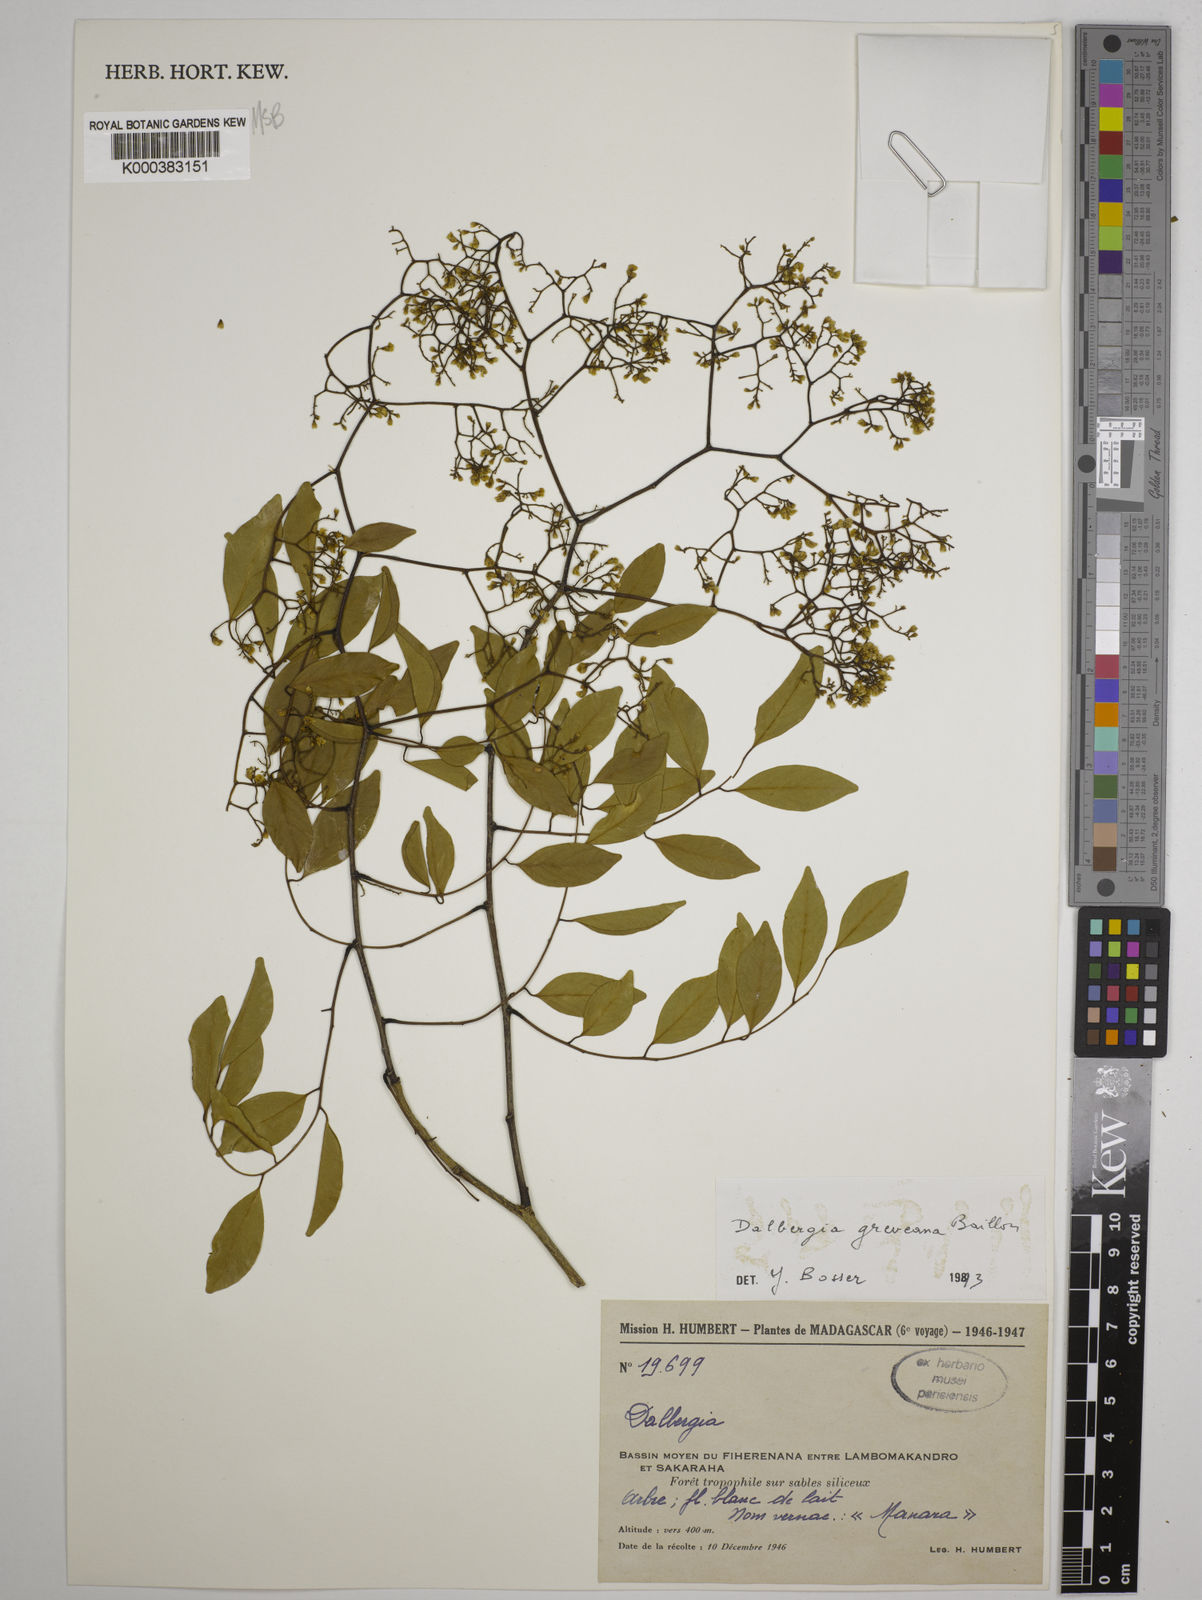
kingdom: Plantae
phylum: Tracheophyta
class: Magnoliopsida
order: Fabales
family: Fabaceae
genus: Dalbergia
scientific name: Dalbergia greveana
